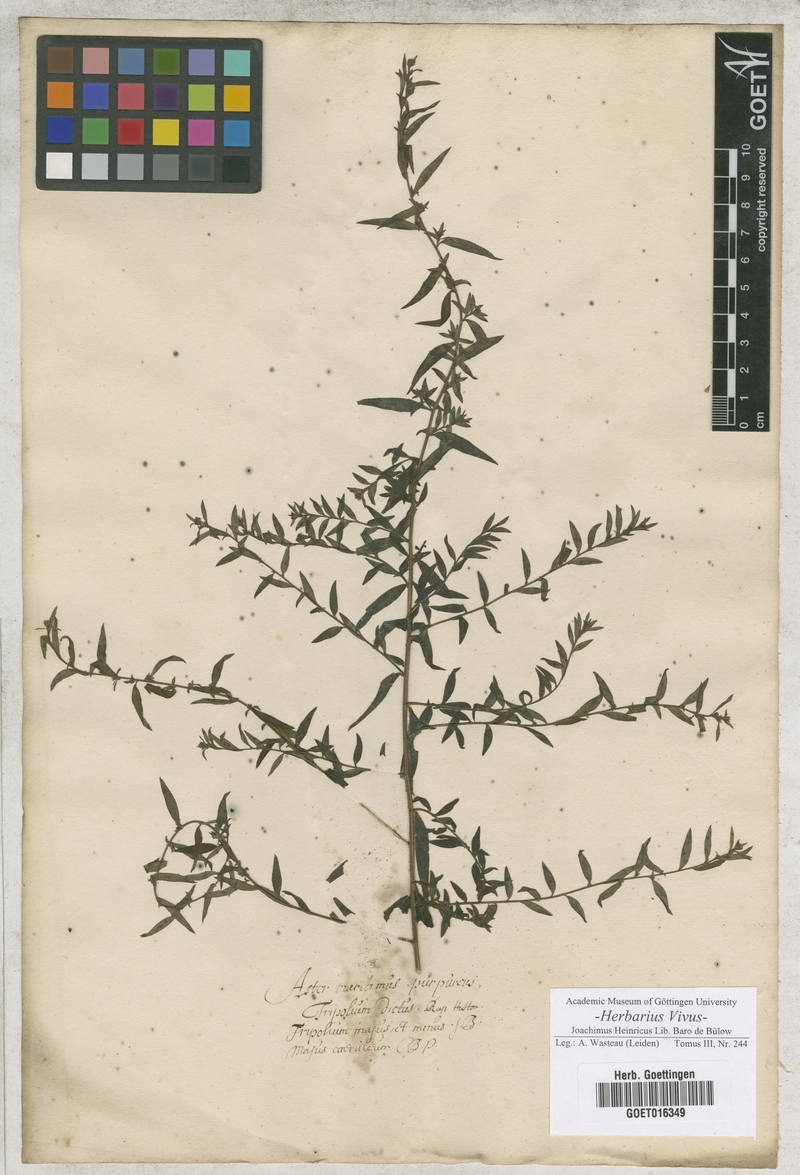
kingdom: Plantae
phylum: Tracheophyta
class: Magnoliopsida
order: Asterales
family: Asteraceae
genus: Tripolium
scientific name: Tripolium pannonicum
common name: Sea aster
